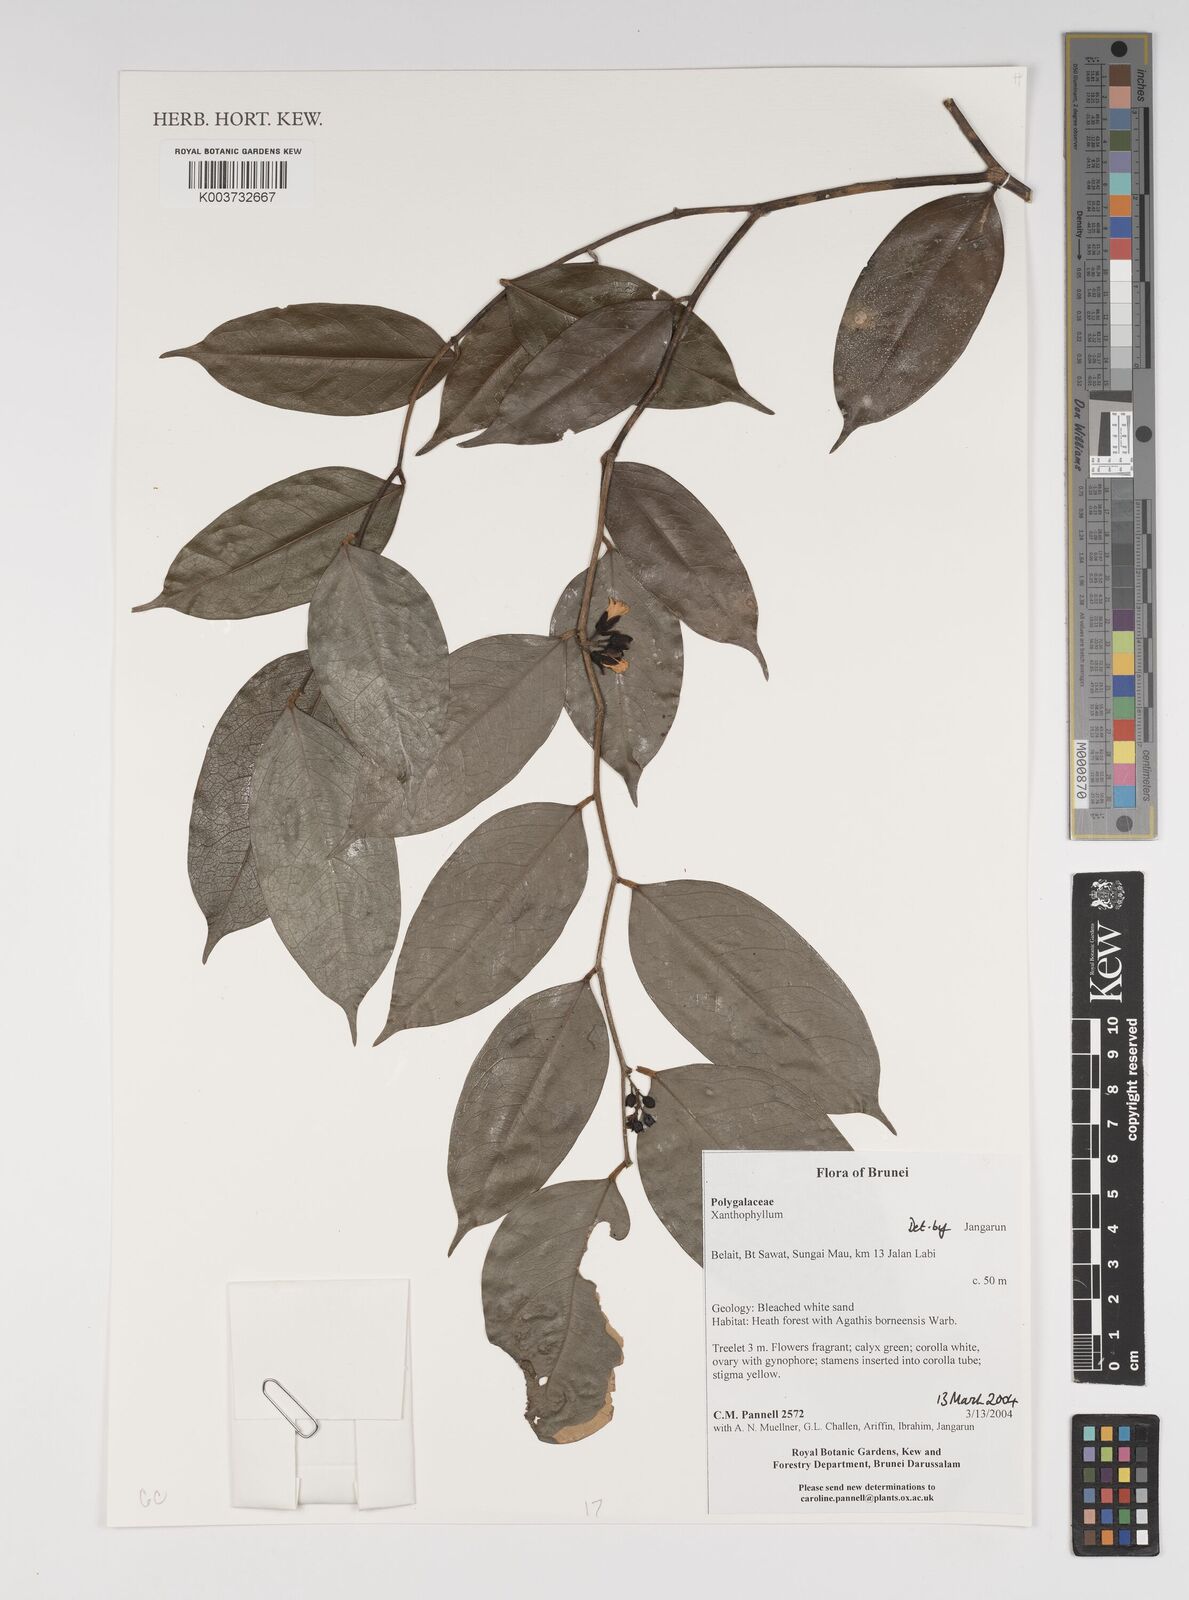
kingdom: Plantae
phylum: Tracheophyta
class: Magnoliopsida
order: Fabales
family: Polygalaceae
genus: Xanthophyllum
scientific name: Xanthophyllum
